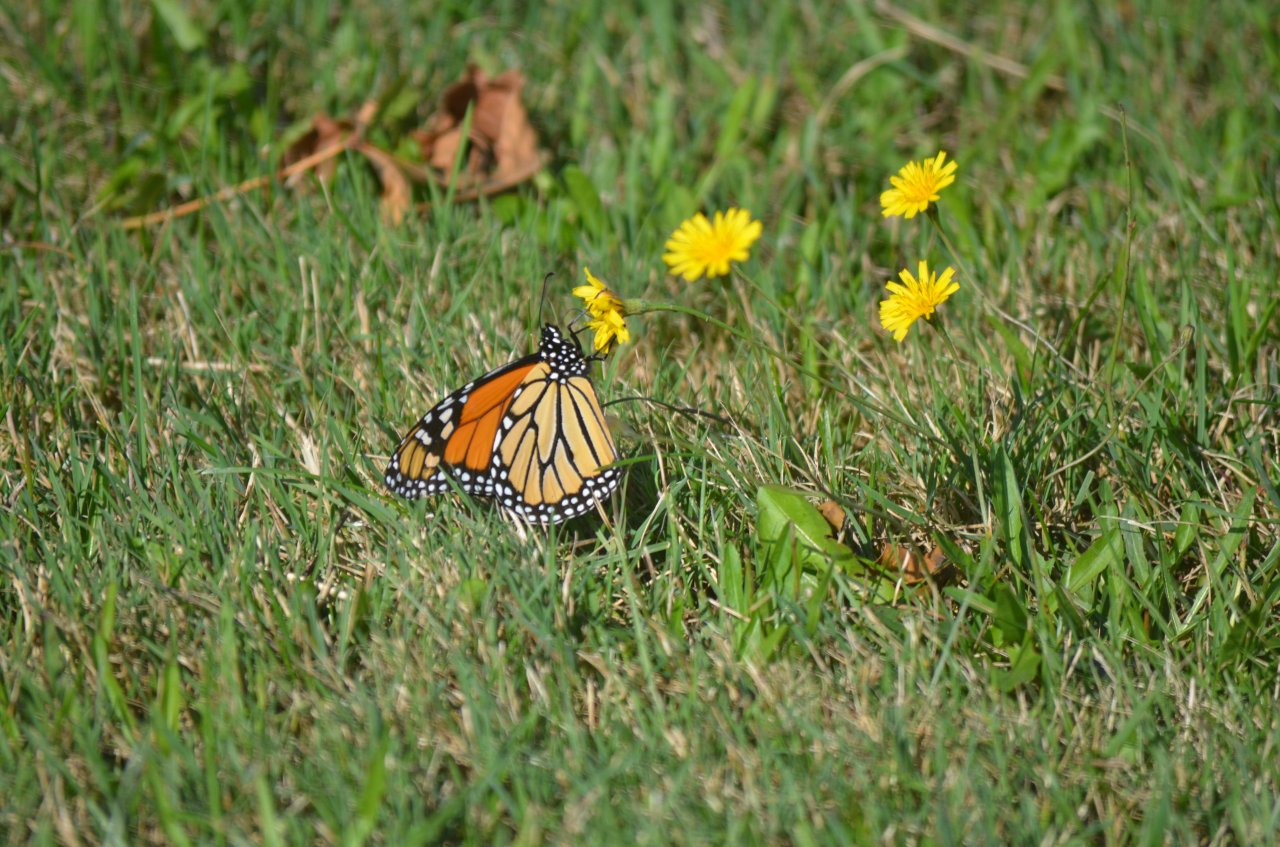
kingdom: Animalia
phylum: Arthropoda
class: Insecta
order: Lepidoptera
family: Nymphalidae
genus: Danaus
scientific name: Danaus plexippus
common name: Monarch
